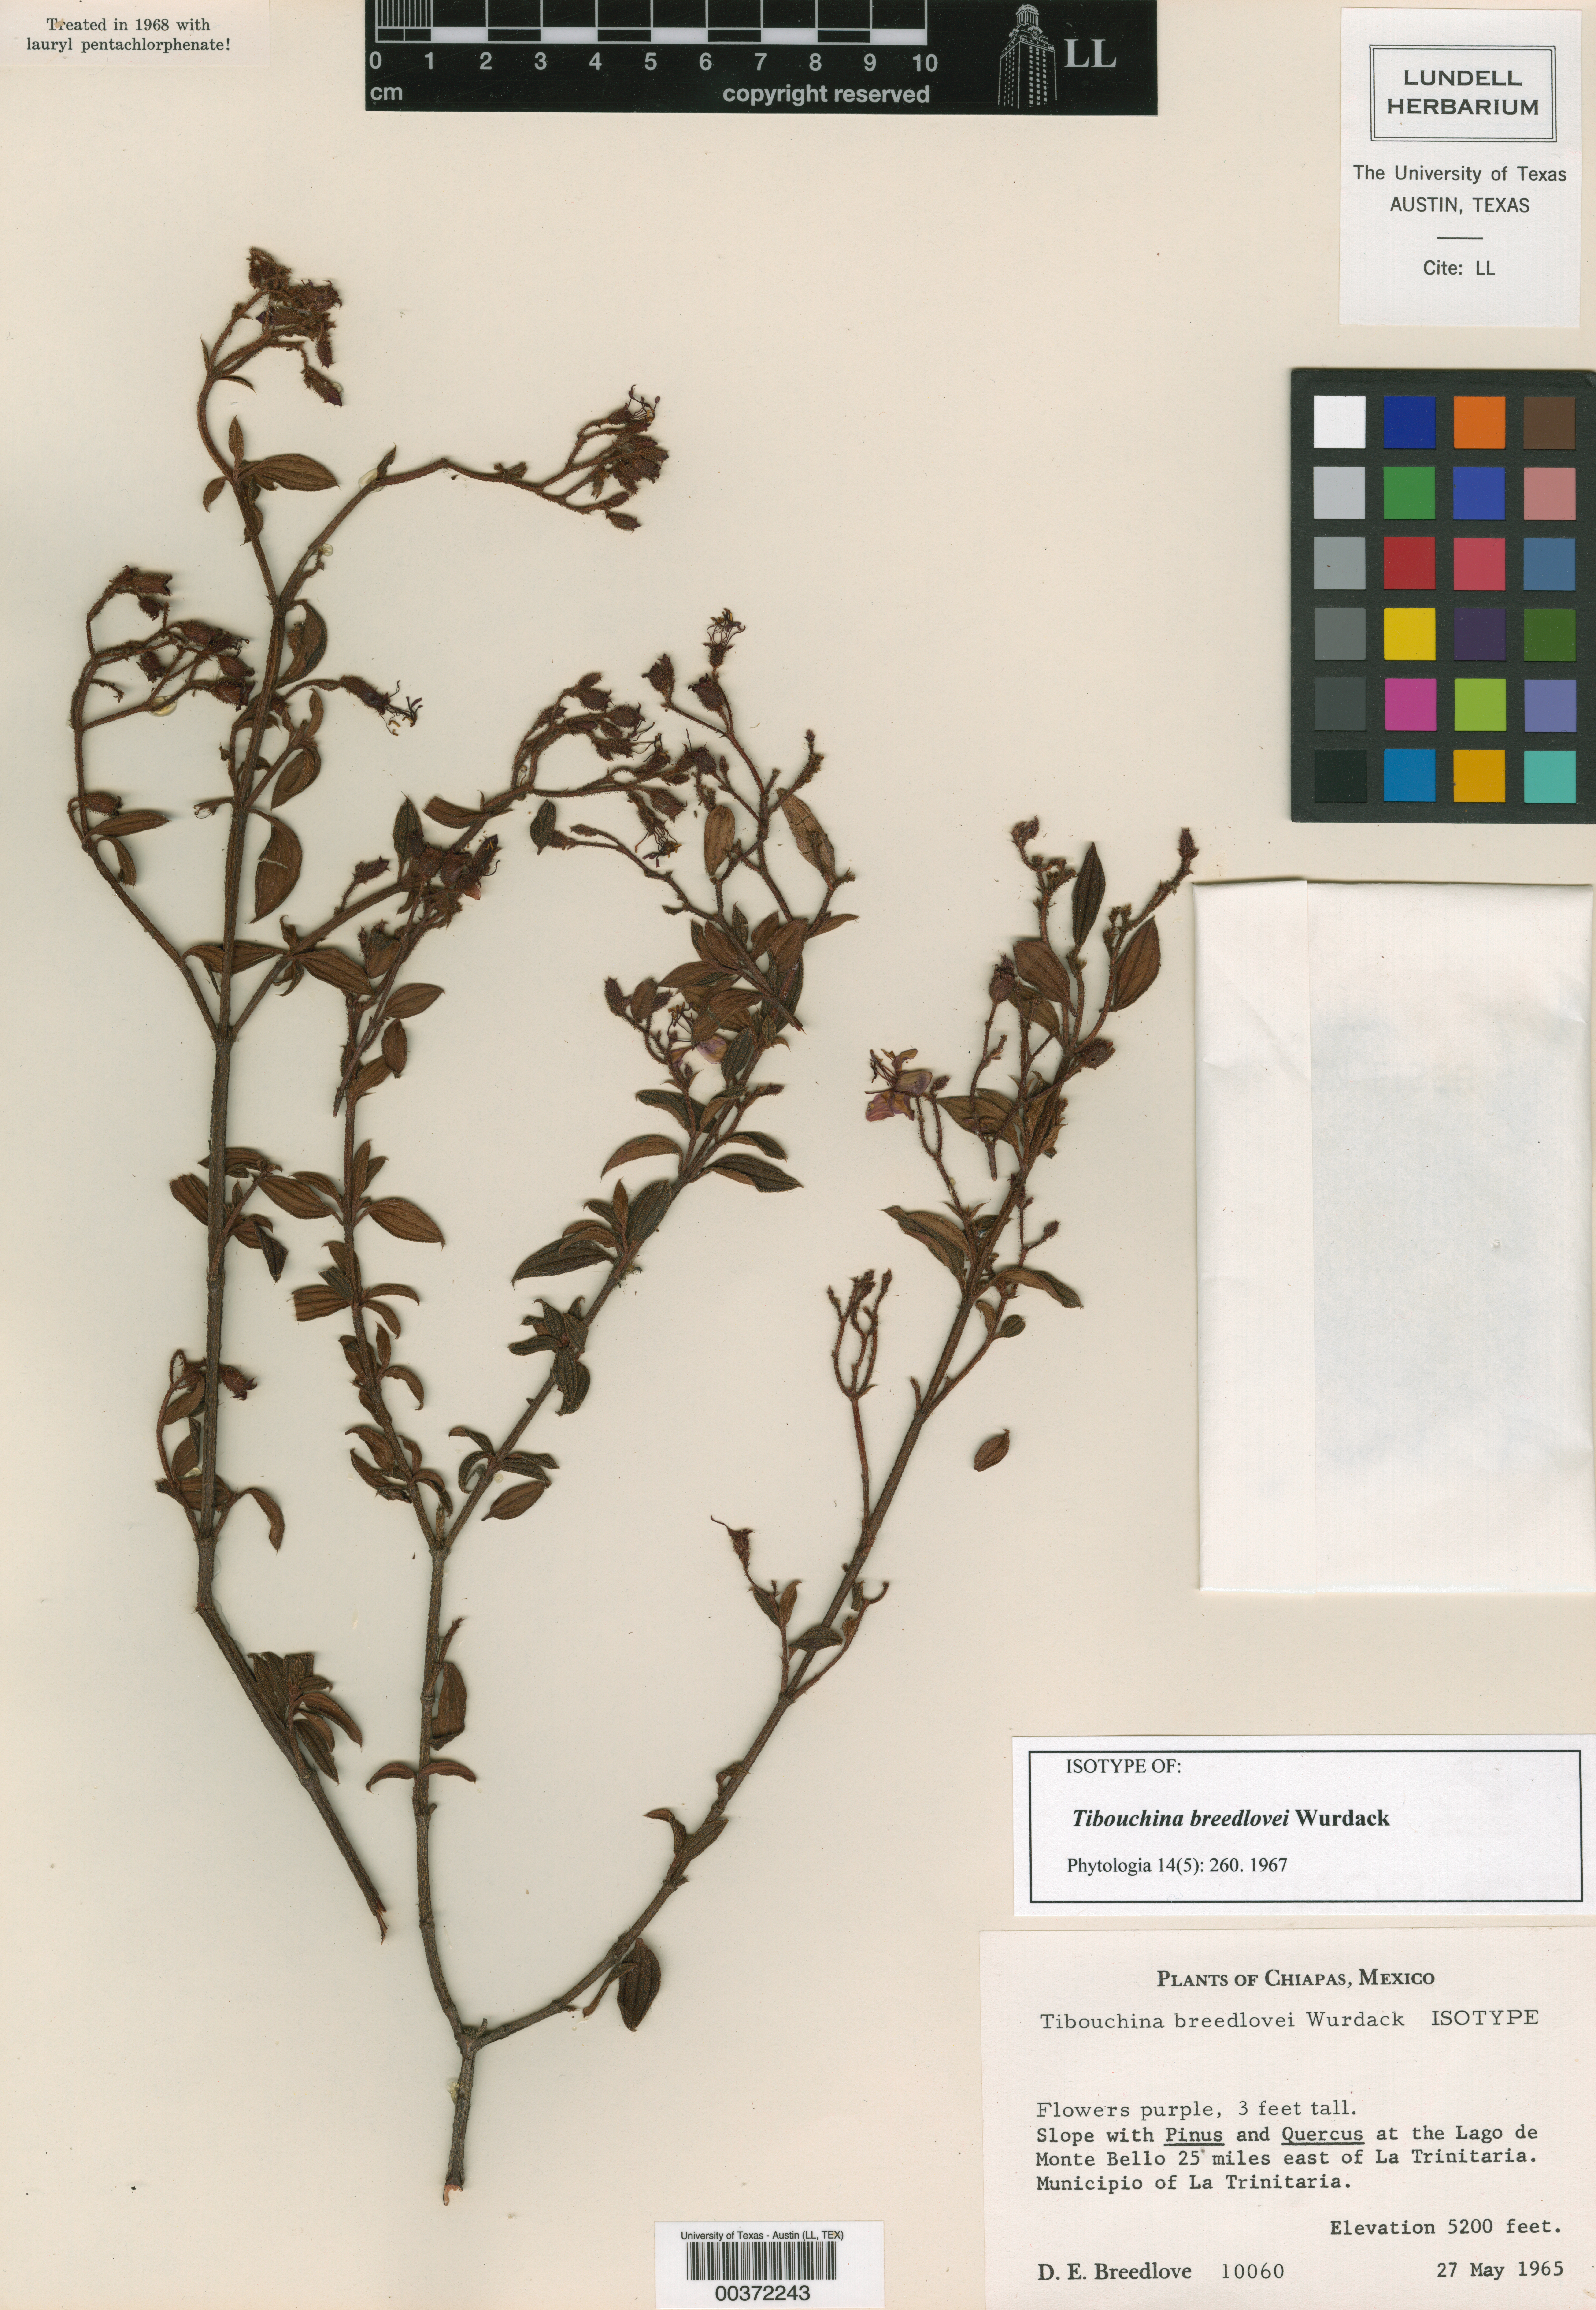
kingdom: Plantae
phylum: Tracheophyta
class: Magnoliopsida
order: Myrtales
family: Melastomataceae
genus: Heterocentron
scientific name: Heterocentron breedlovei
